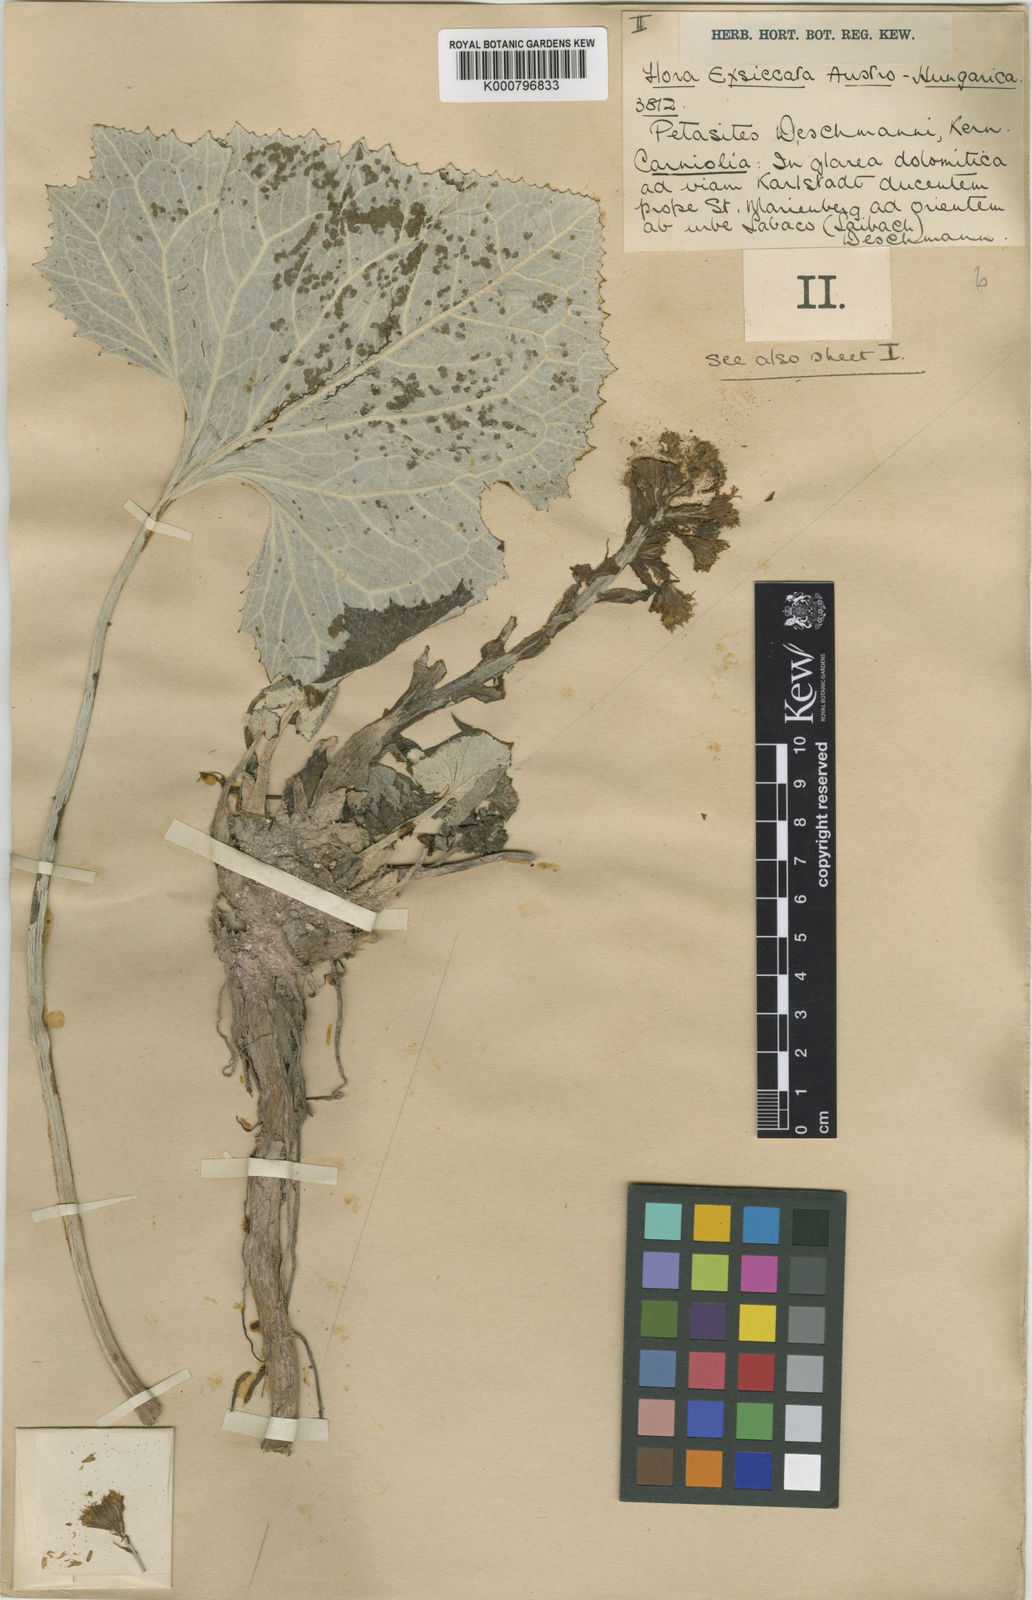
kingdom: Plantae
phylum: Tracheophyta
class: Magnoliopsida
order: Asterales
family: Asteraceae
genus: Petasites
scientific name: Petasites deschmannii
